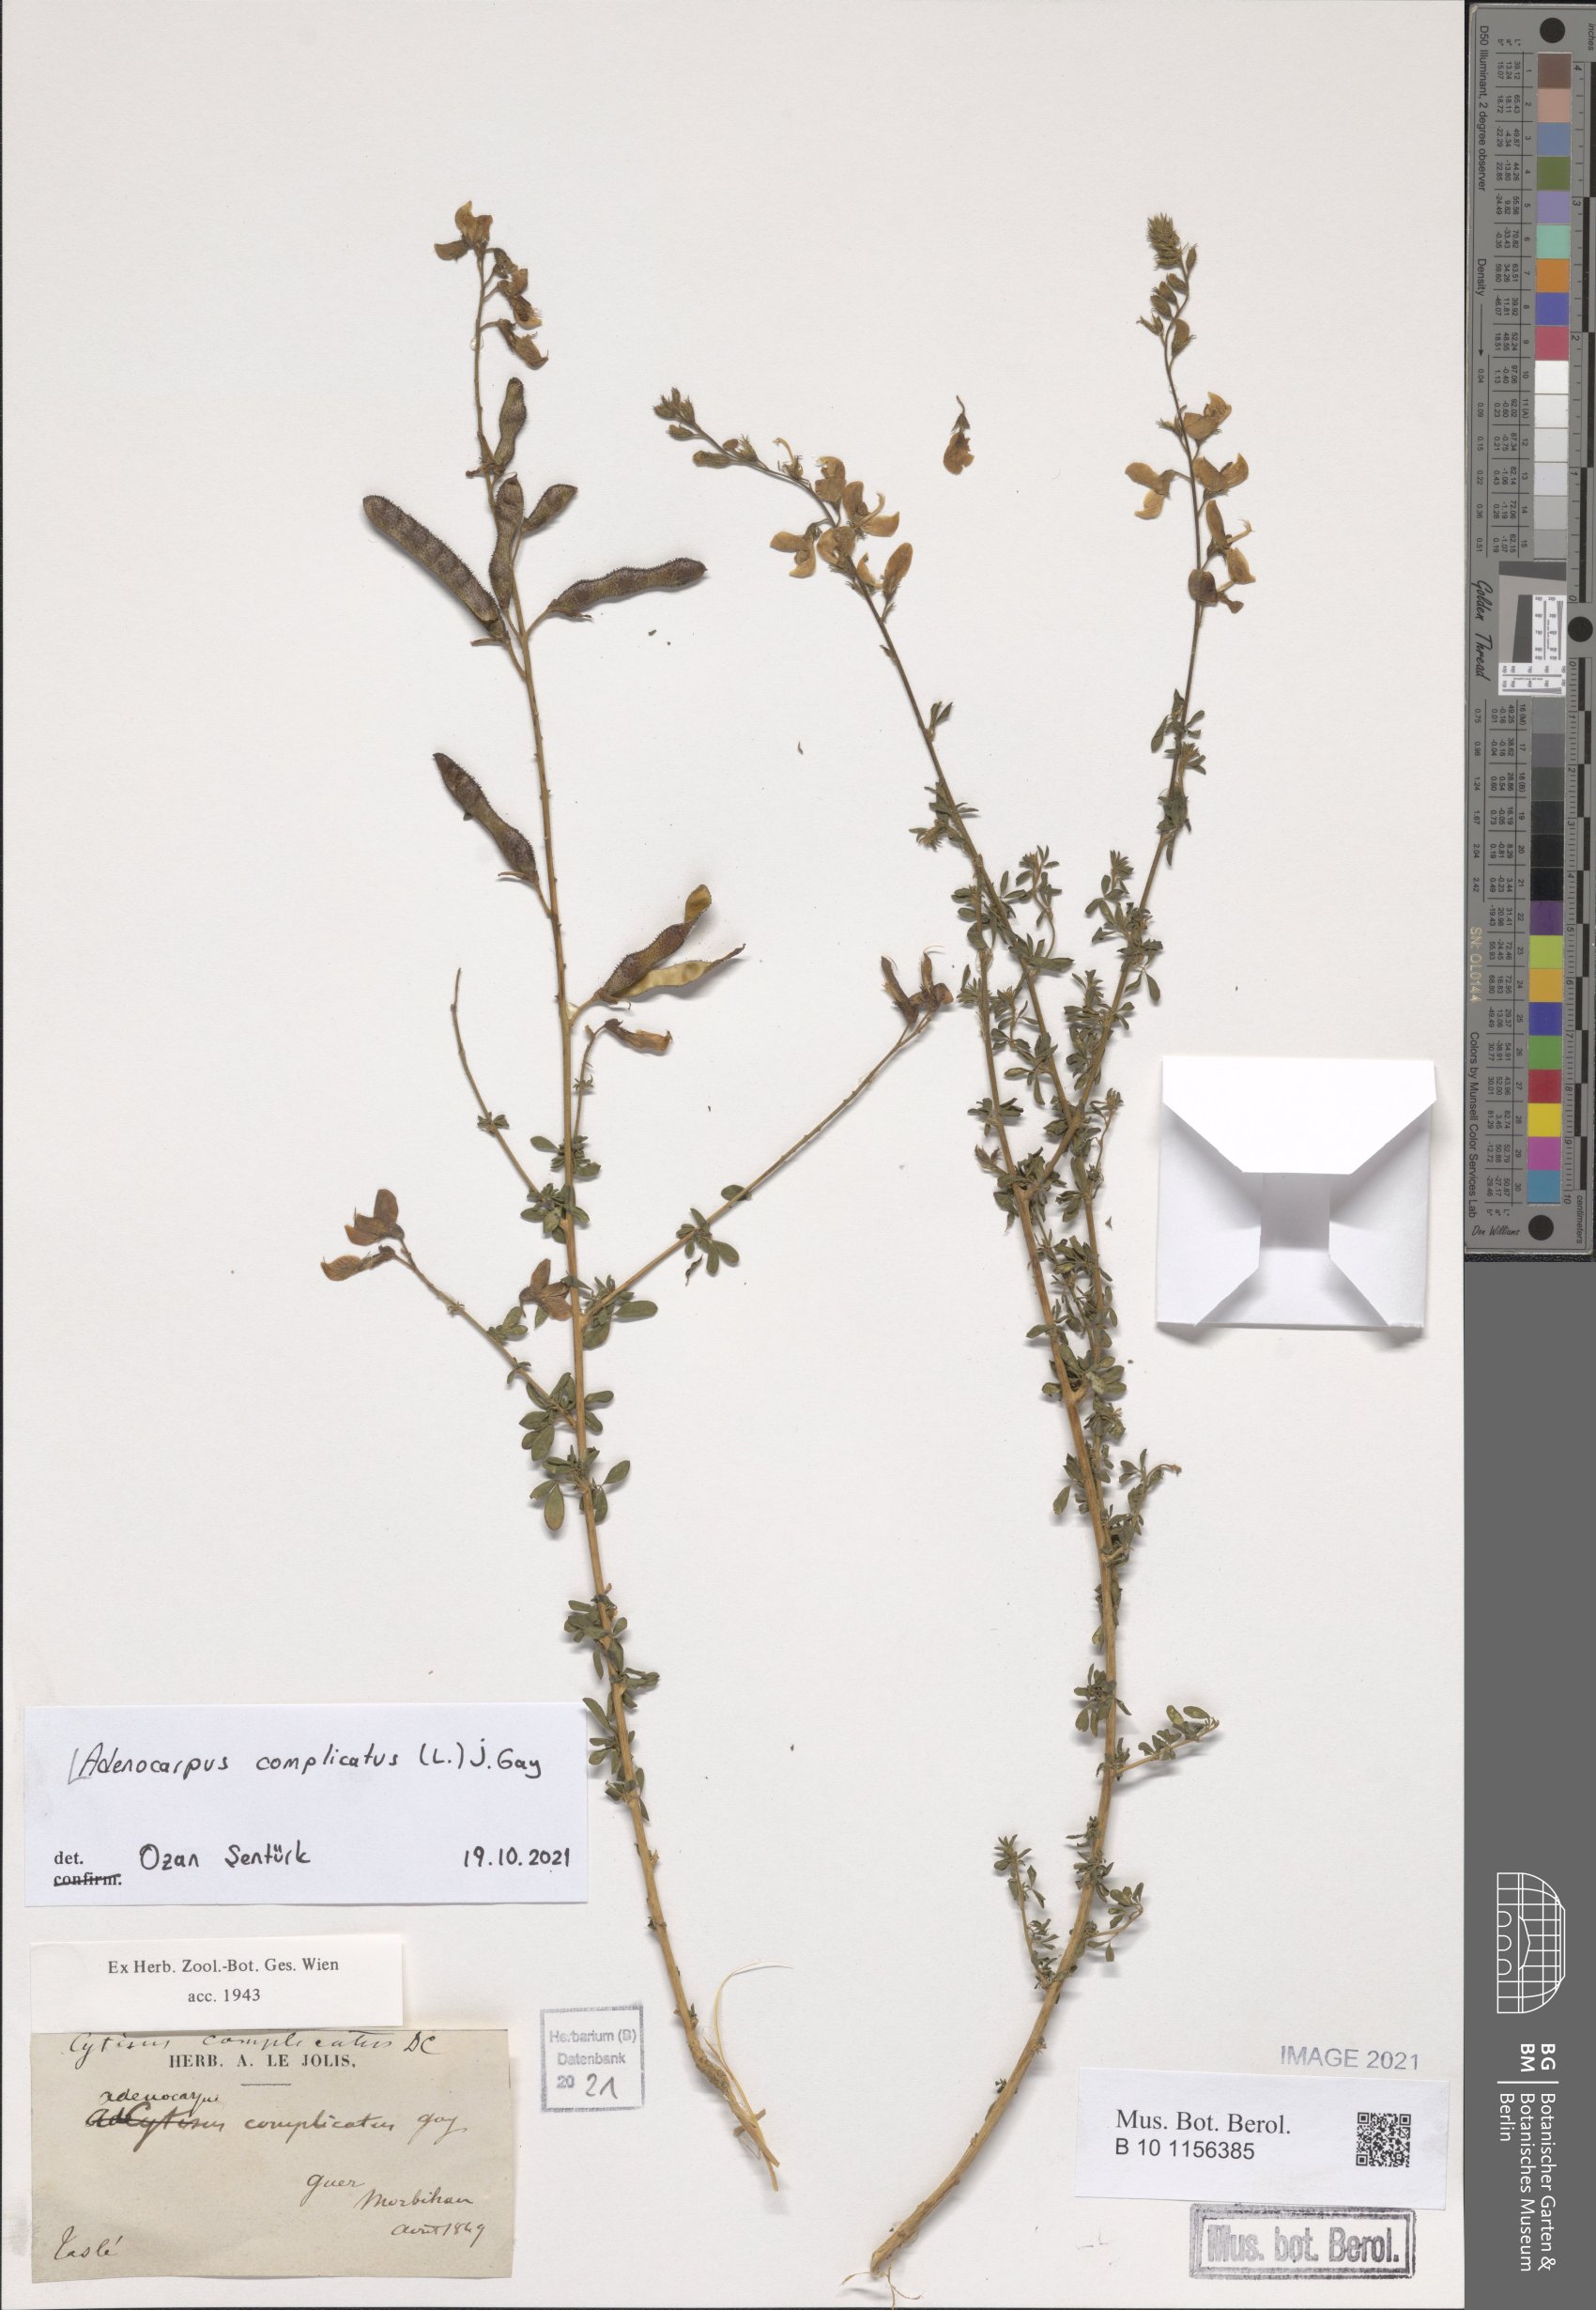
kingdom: Plantae
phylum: Tracheophyta
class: Magnoliopsida
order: Fabales
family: Fabaceae
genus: Adenocarpus
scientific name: Adenocarpus complicatus
